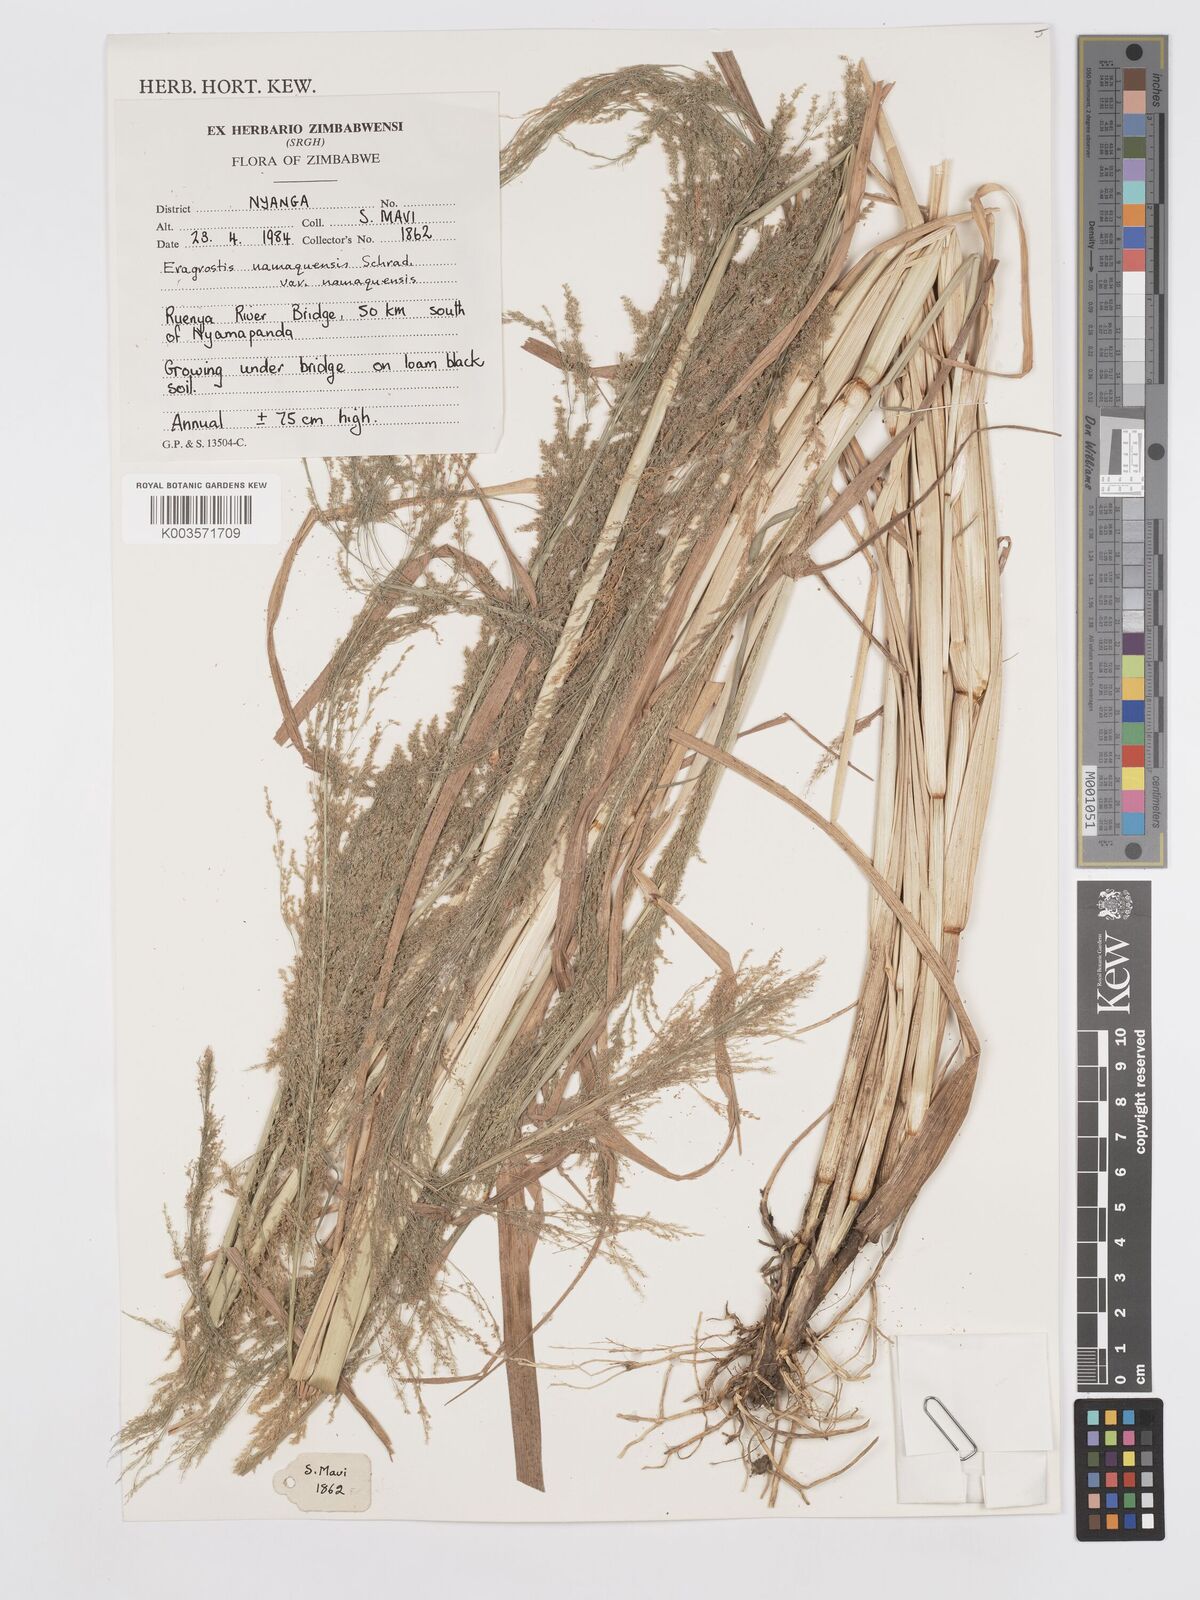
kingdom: Plantae
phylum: Tracheophyta
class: Liliopsida
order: Poales
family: Poaceae
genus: Eragrostis
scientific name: Eragrostis japonica
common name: Pond lovegrass
